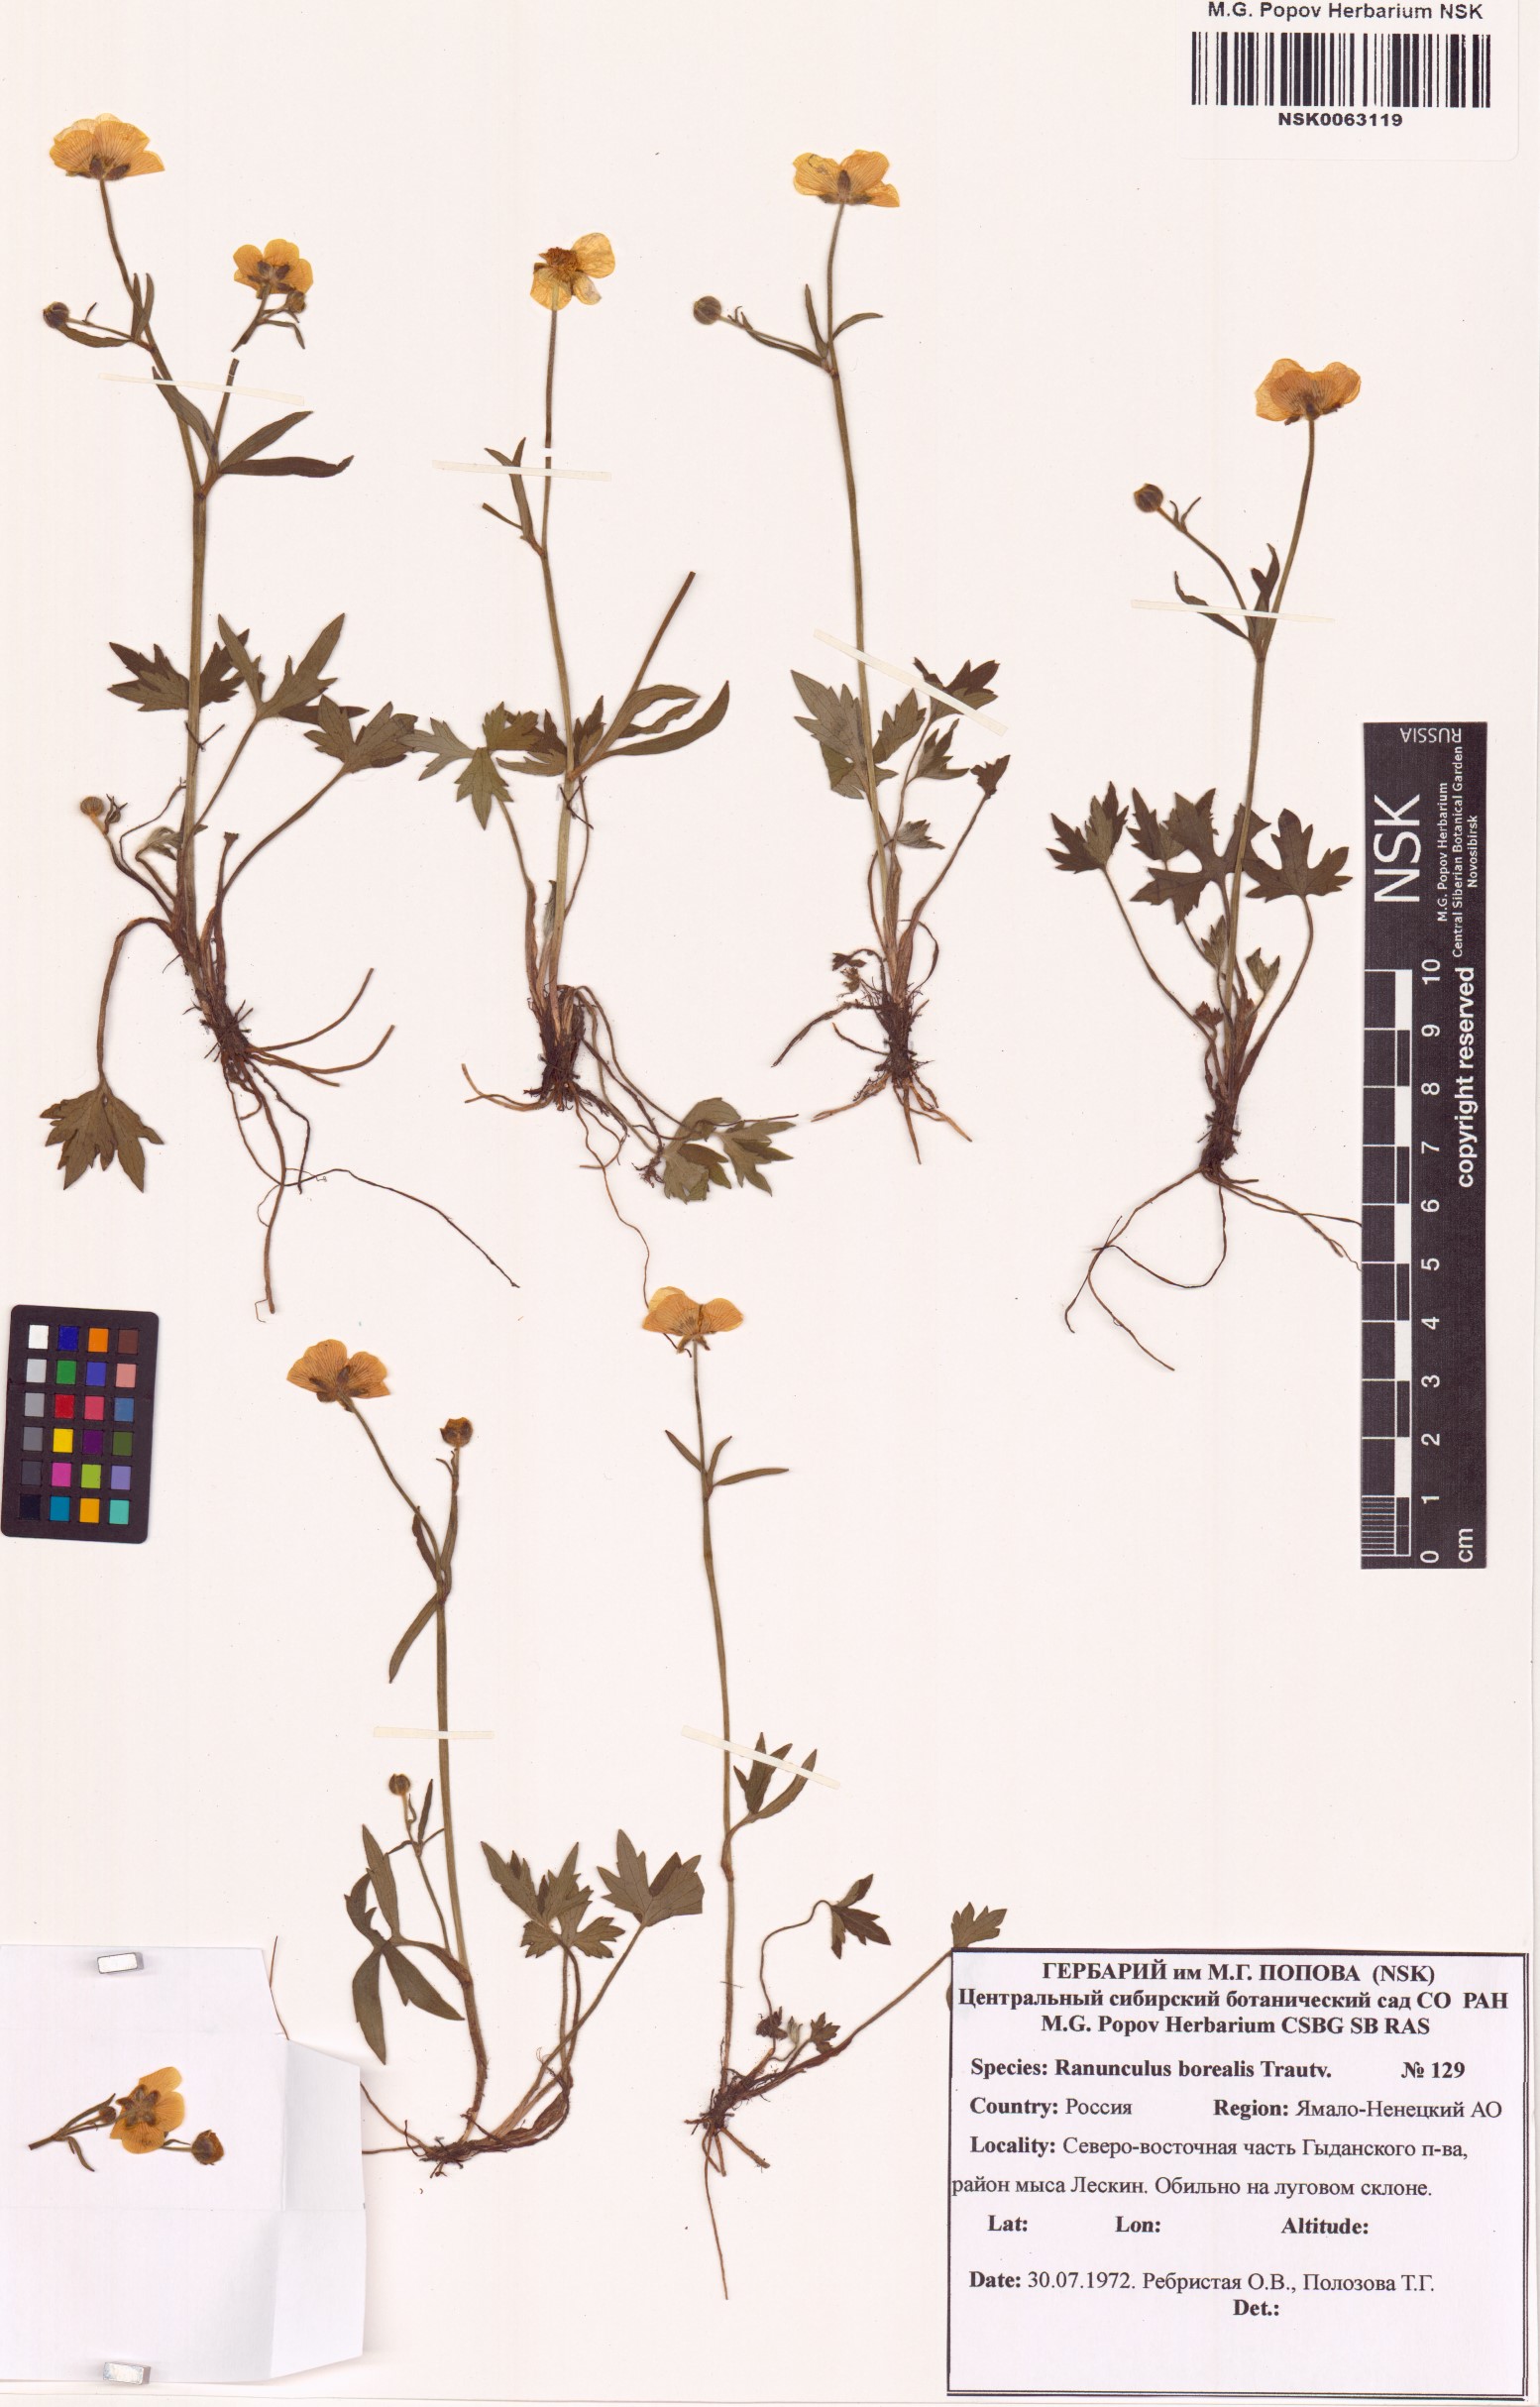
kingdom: Plantae
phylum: Tracheophyta
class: Magnoliopsida
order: Ranunculales
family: Ranunculaceae
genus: Ranunculus
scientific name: Ranunculus propinquus
